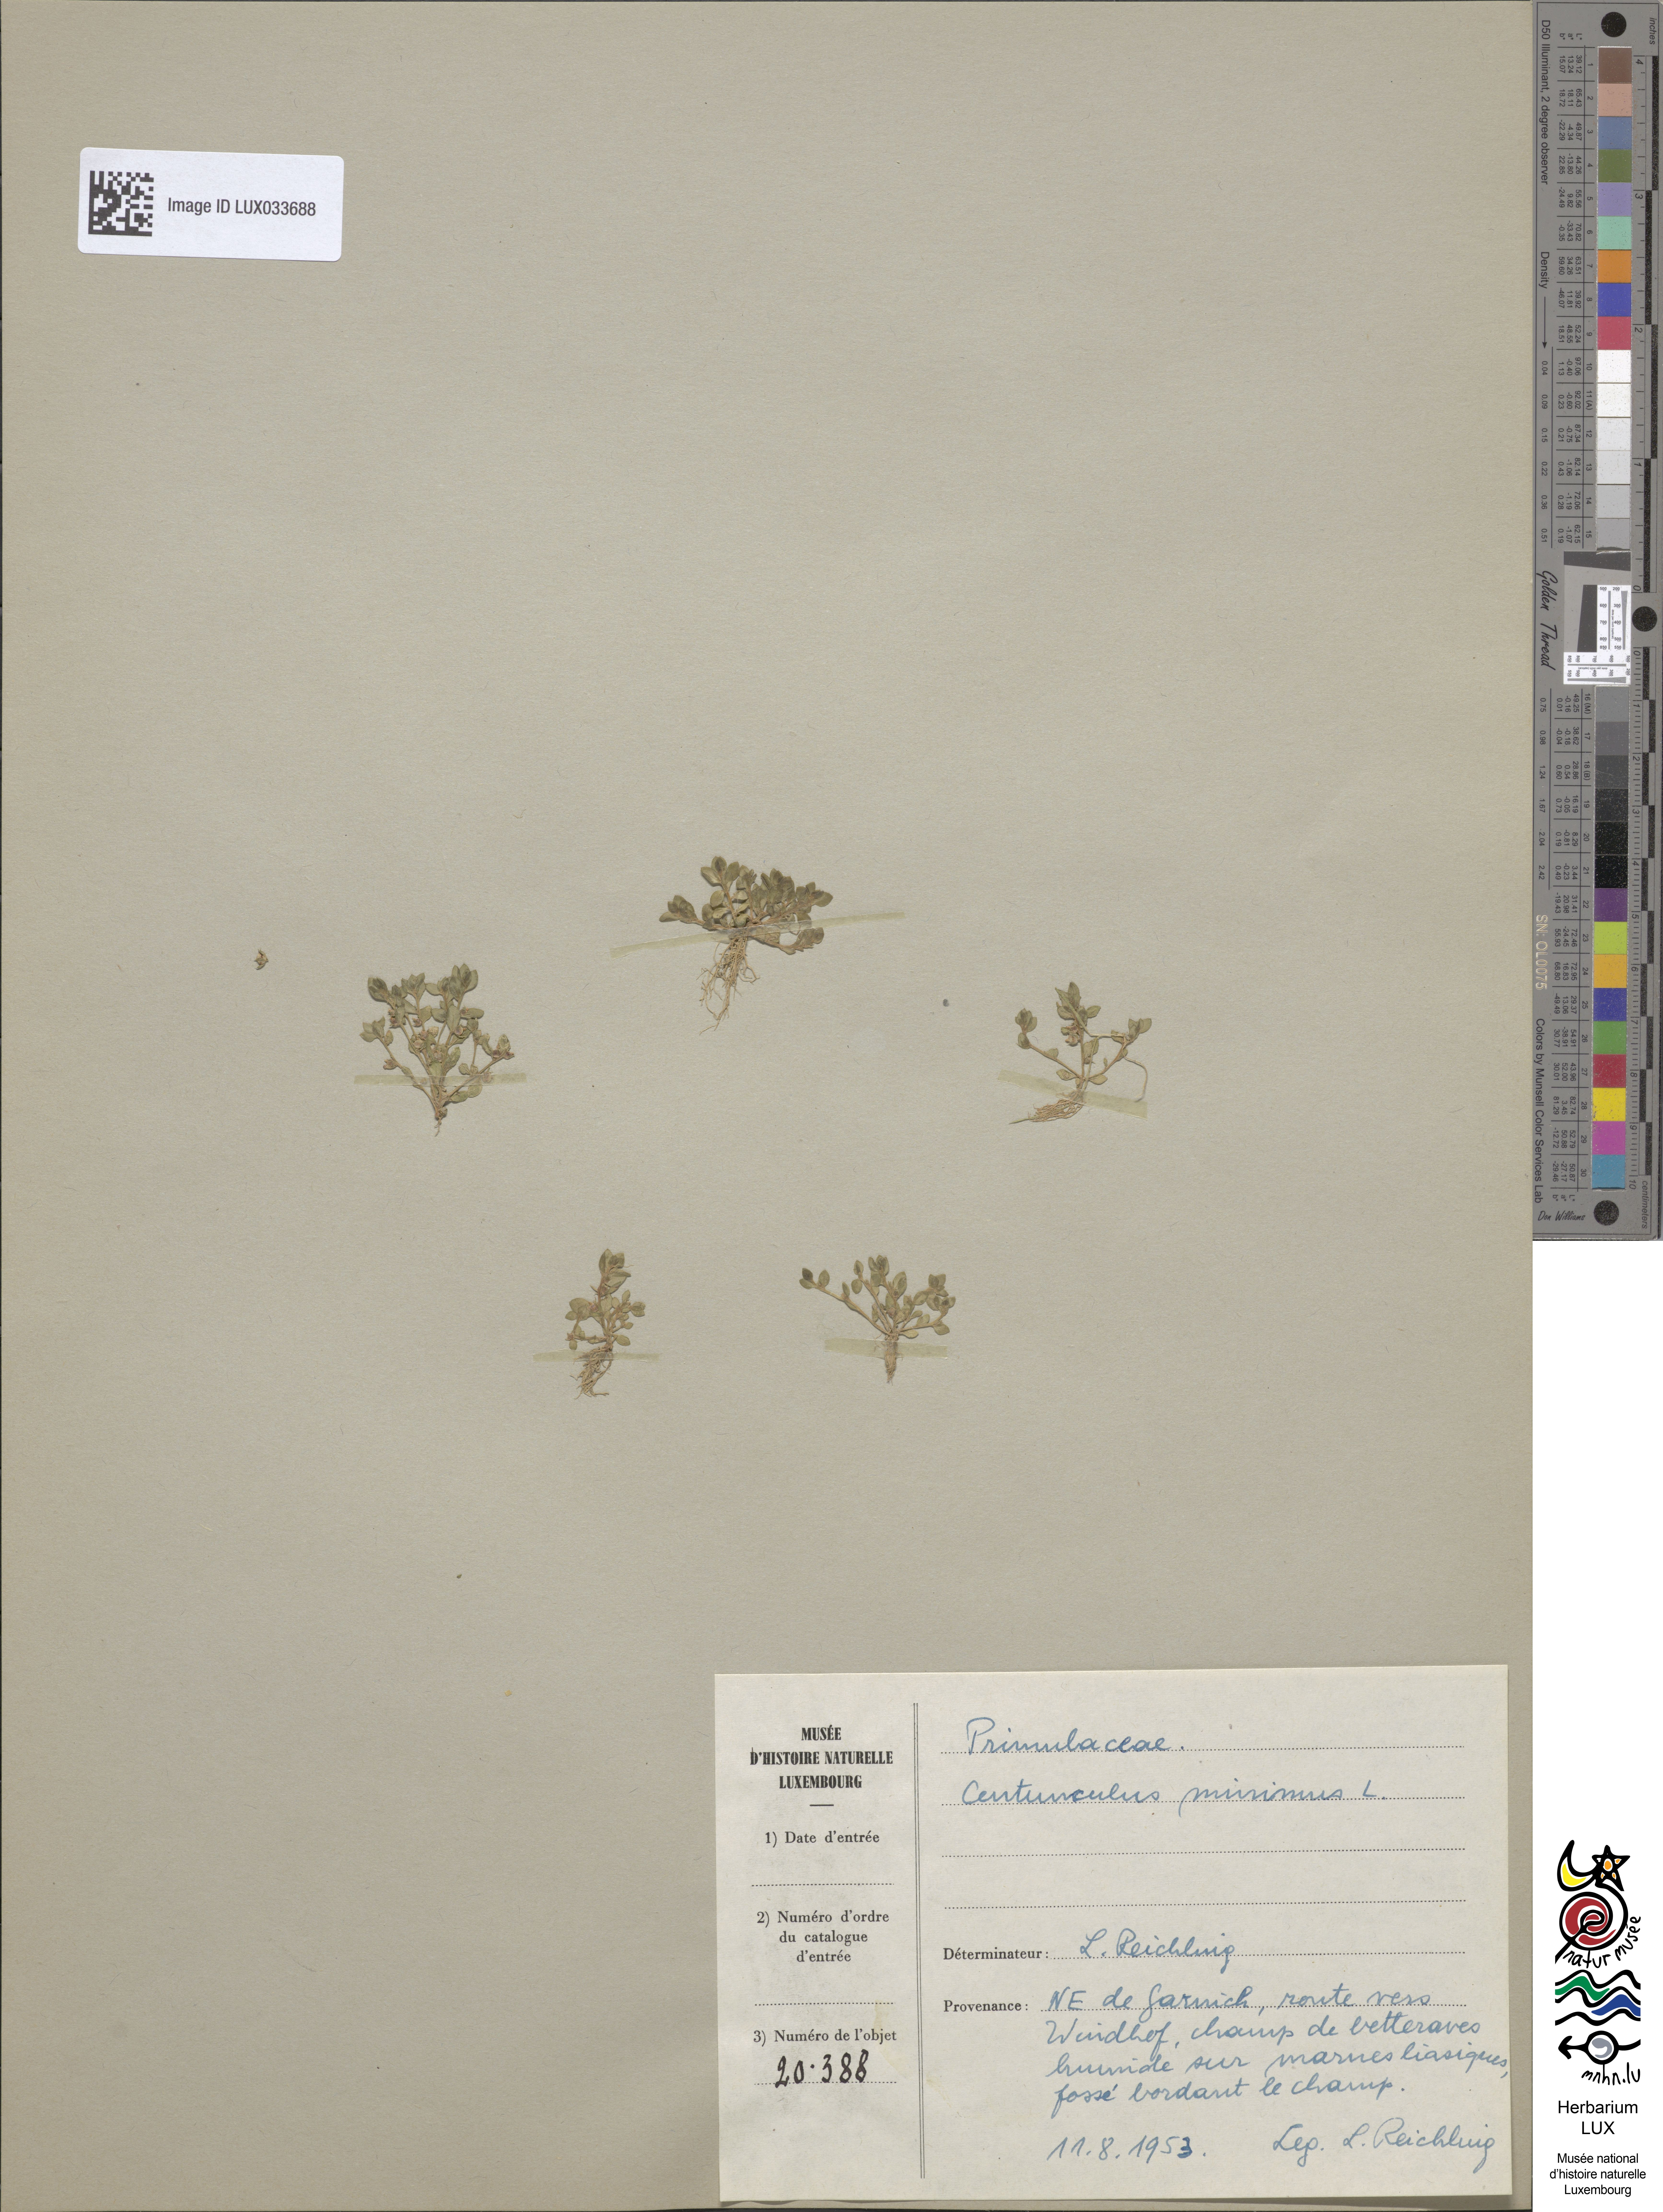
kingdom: Plantae
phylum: Tracheophyta
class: Magnoliopsida
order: Ericales
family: Primulaceae
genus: Lysimachia
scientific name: Lysimachia minima
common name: Chaffweed
